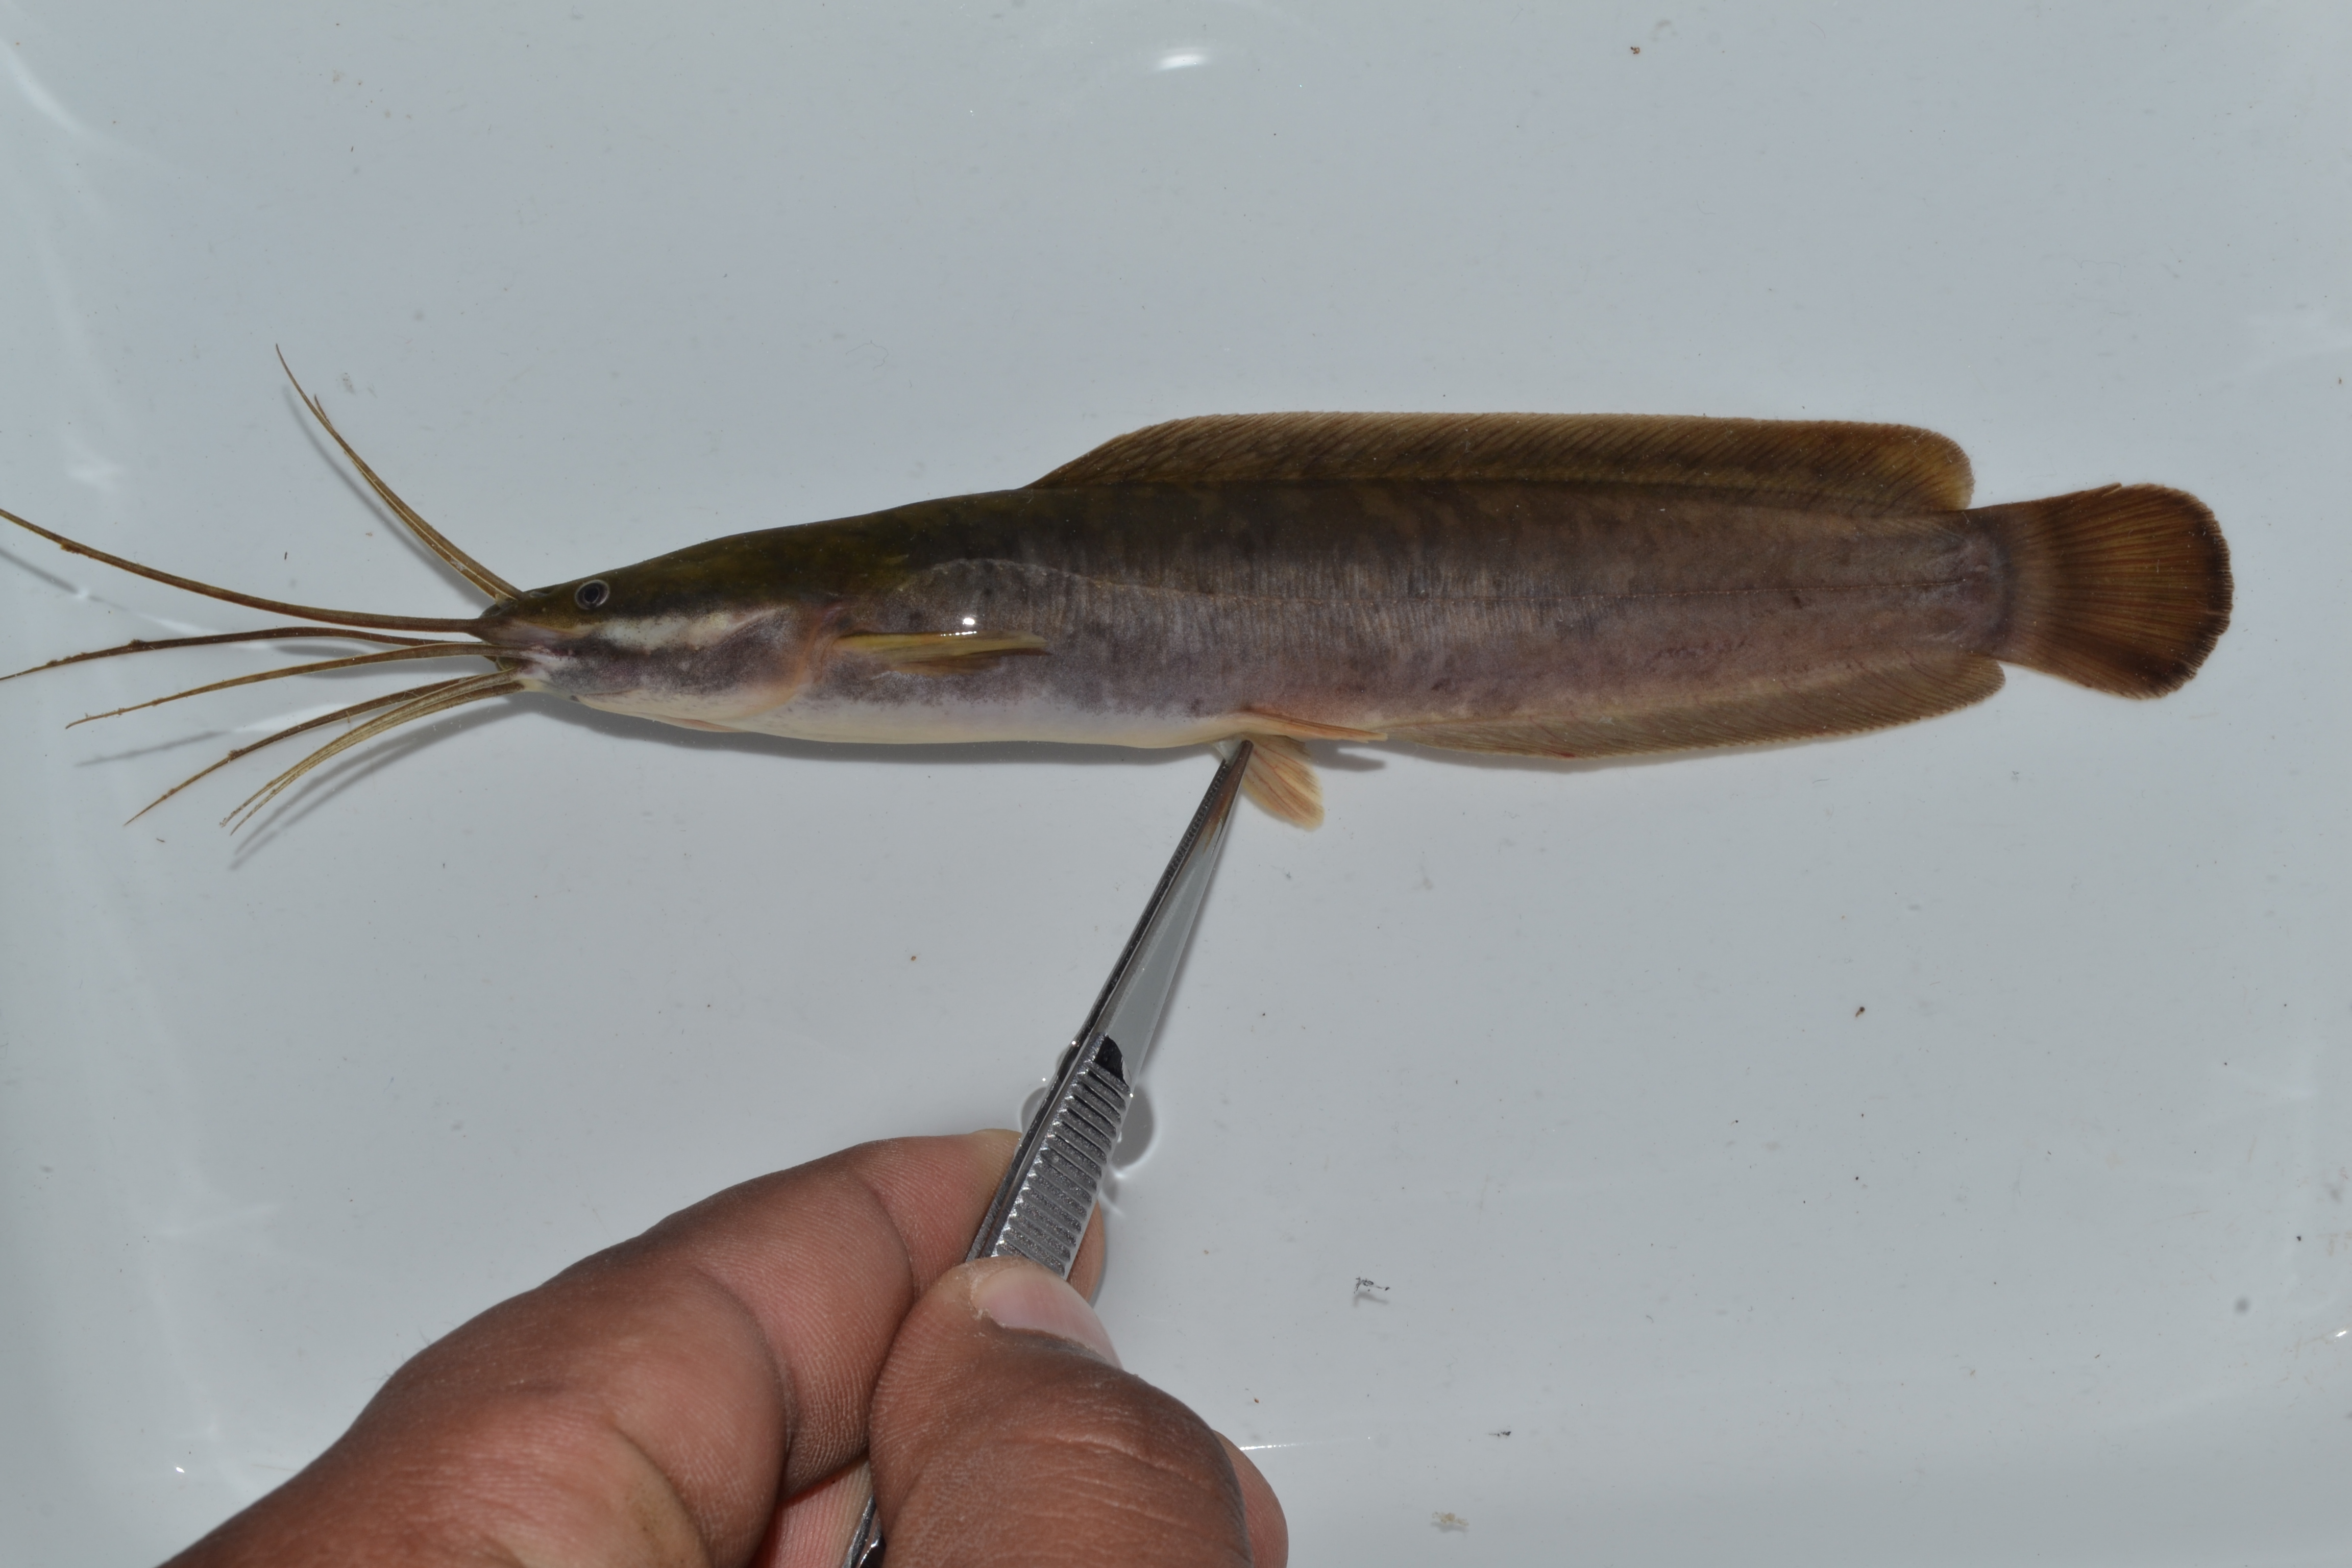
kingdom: Animalia
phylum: Chordata
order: Siluriformes
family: Clariidae
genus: Clarias
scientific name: Clarias gariepinus
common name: African catfish
